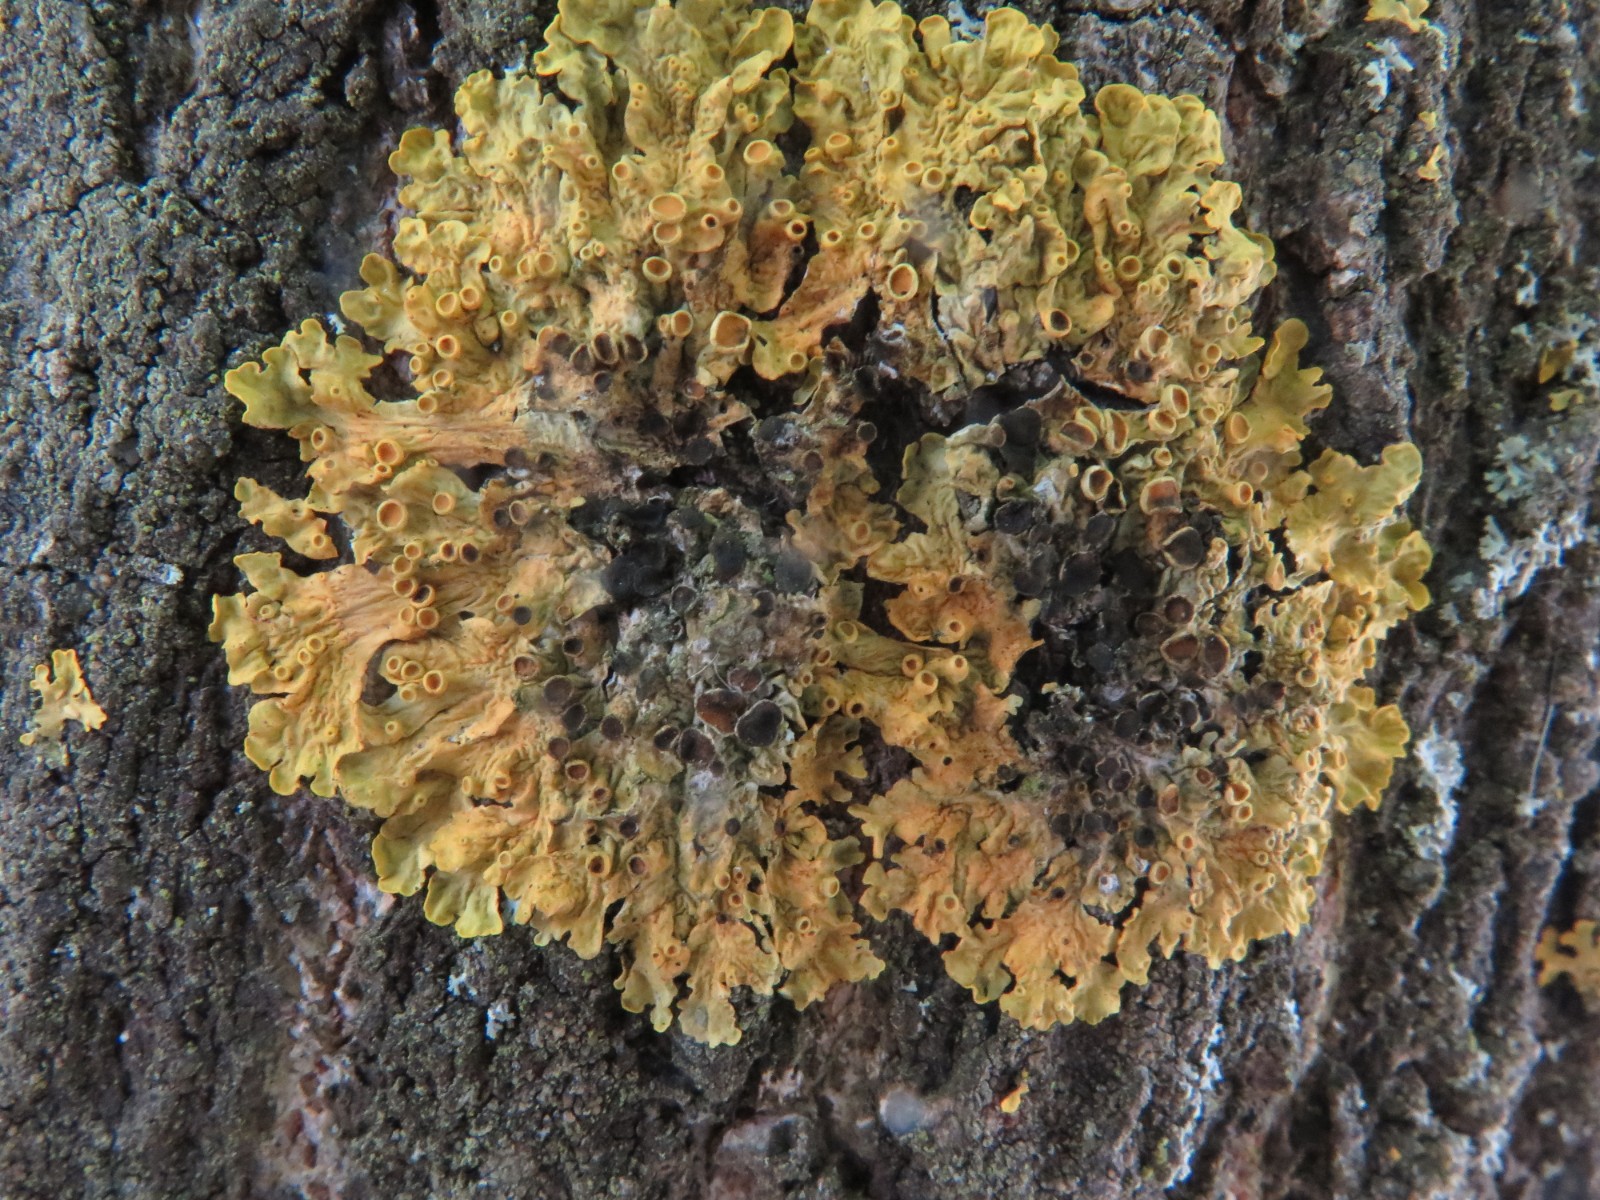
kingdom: Fungi
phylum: Ascomycota
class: Dothideomycetes
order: Mycosphaerellales
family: Teratosphaeriaceae
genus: Xanthoriicola
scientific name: Xanthoriicola physciae
